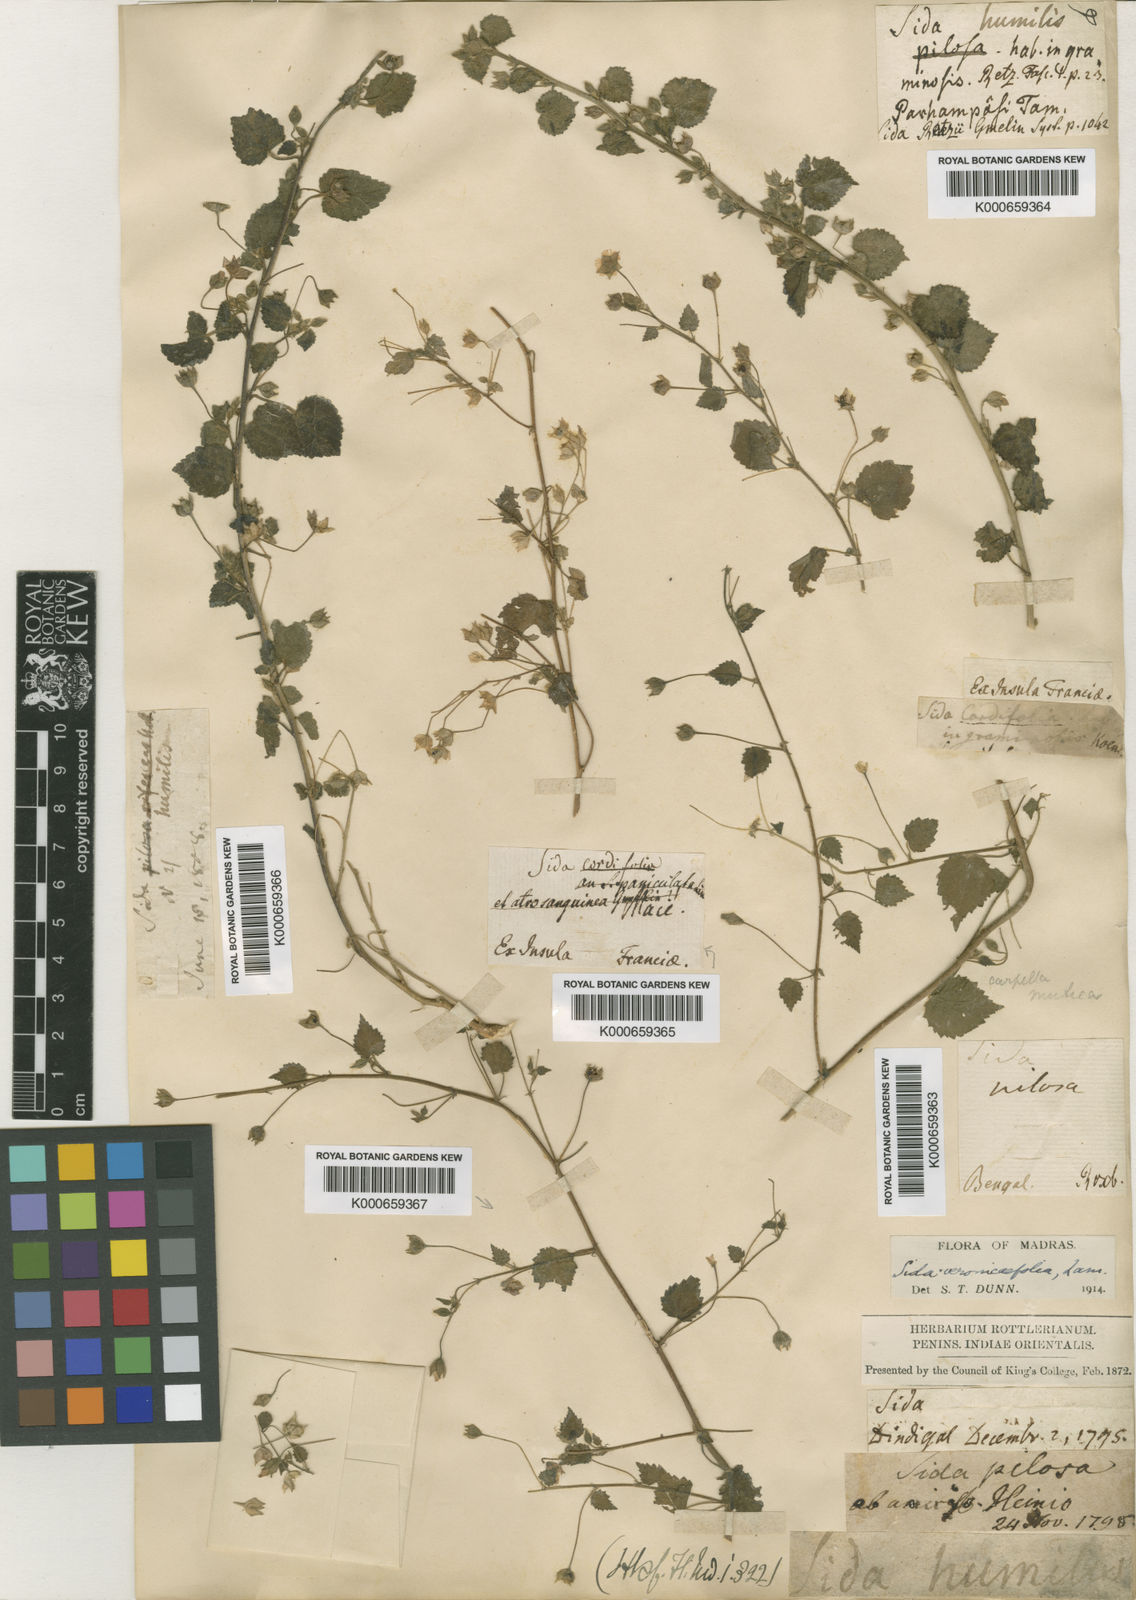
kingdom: Plantae
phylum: Tracheophyta
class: Magnoliopsida
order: Malvales
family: Malvaceae
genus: Sida
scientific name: Sida cordata
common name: Long-stalk sida
